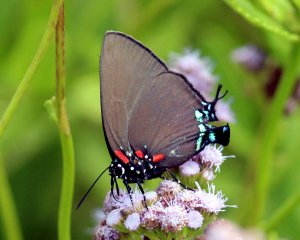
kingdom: Animalia
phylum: Arthropoda
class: Insecta
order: Lepidoptera
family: Lycaenidae
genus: Atlides
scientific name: Atlides halesus
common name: Great Purple Hairstreak
